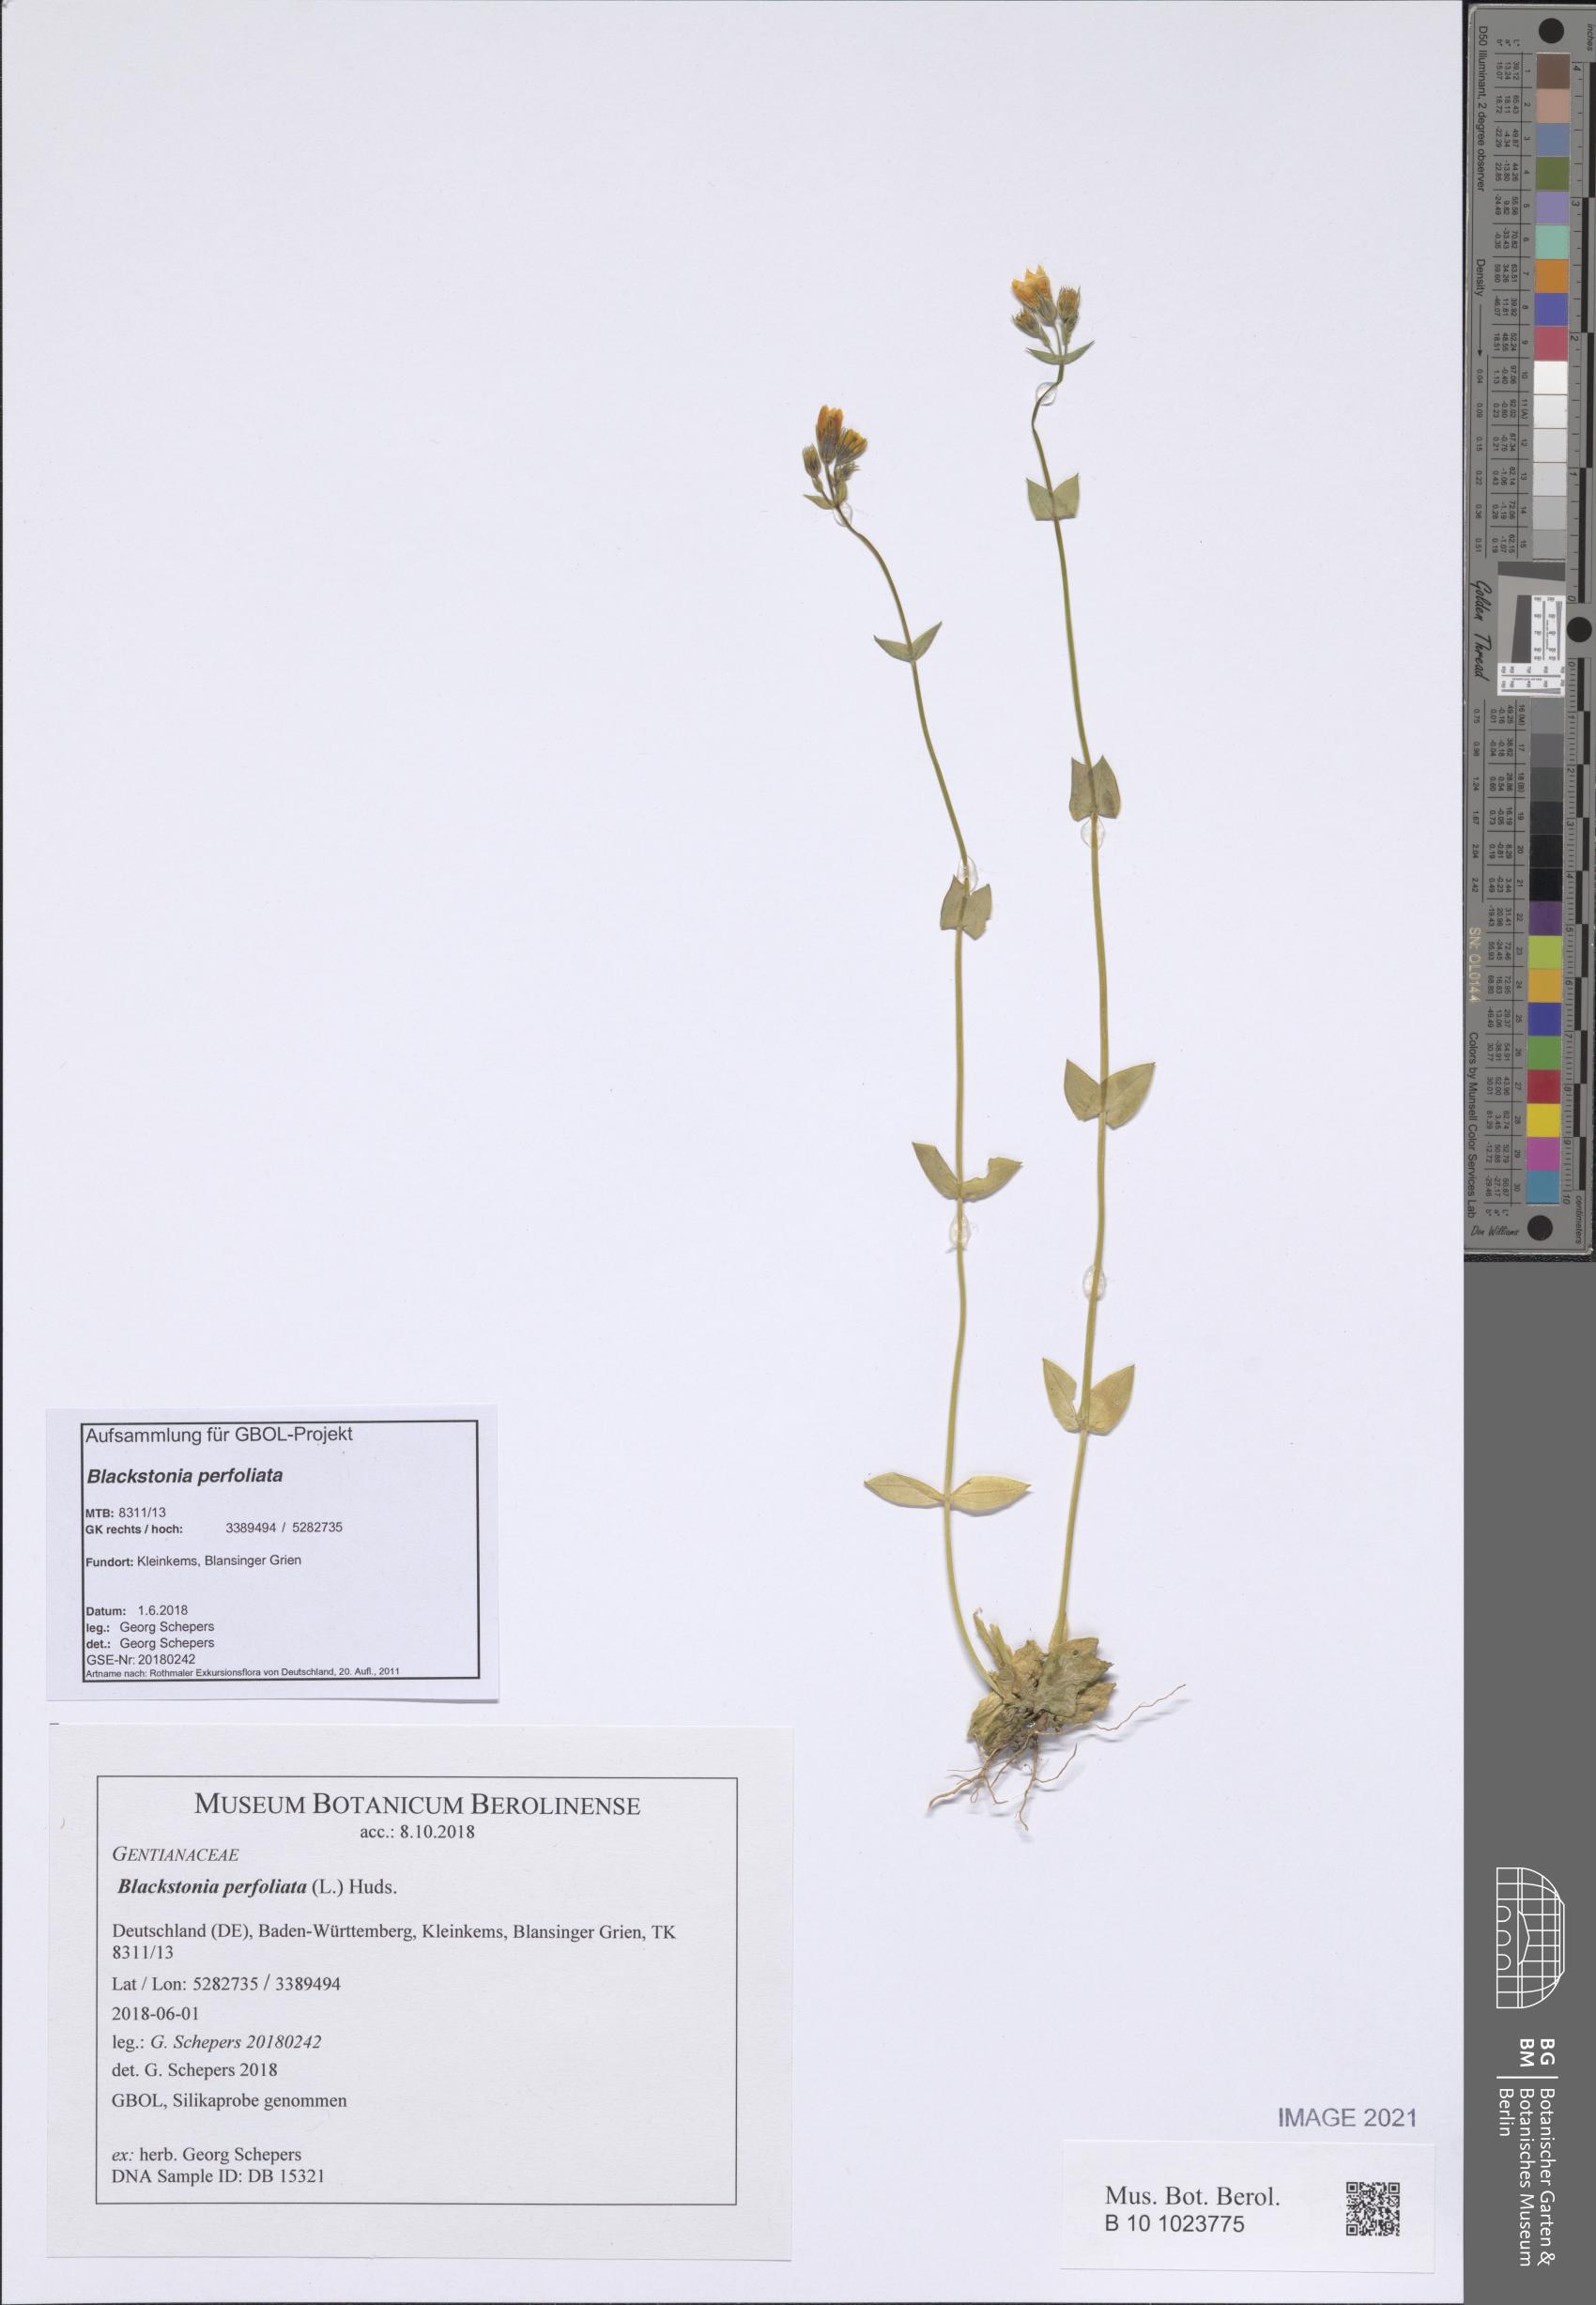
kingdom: Plantae
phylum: Tracheophyta
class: Magnoliopsida
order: Gentianales
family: Gentianaceae
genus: Blackstonia
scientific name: Blackstonia perfoliata
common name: Yellow-wort
